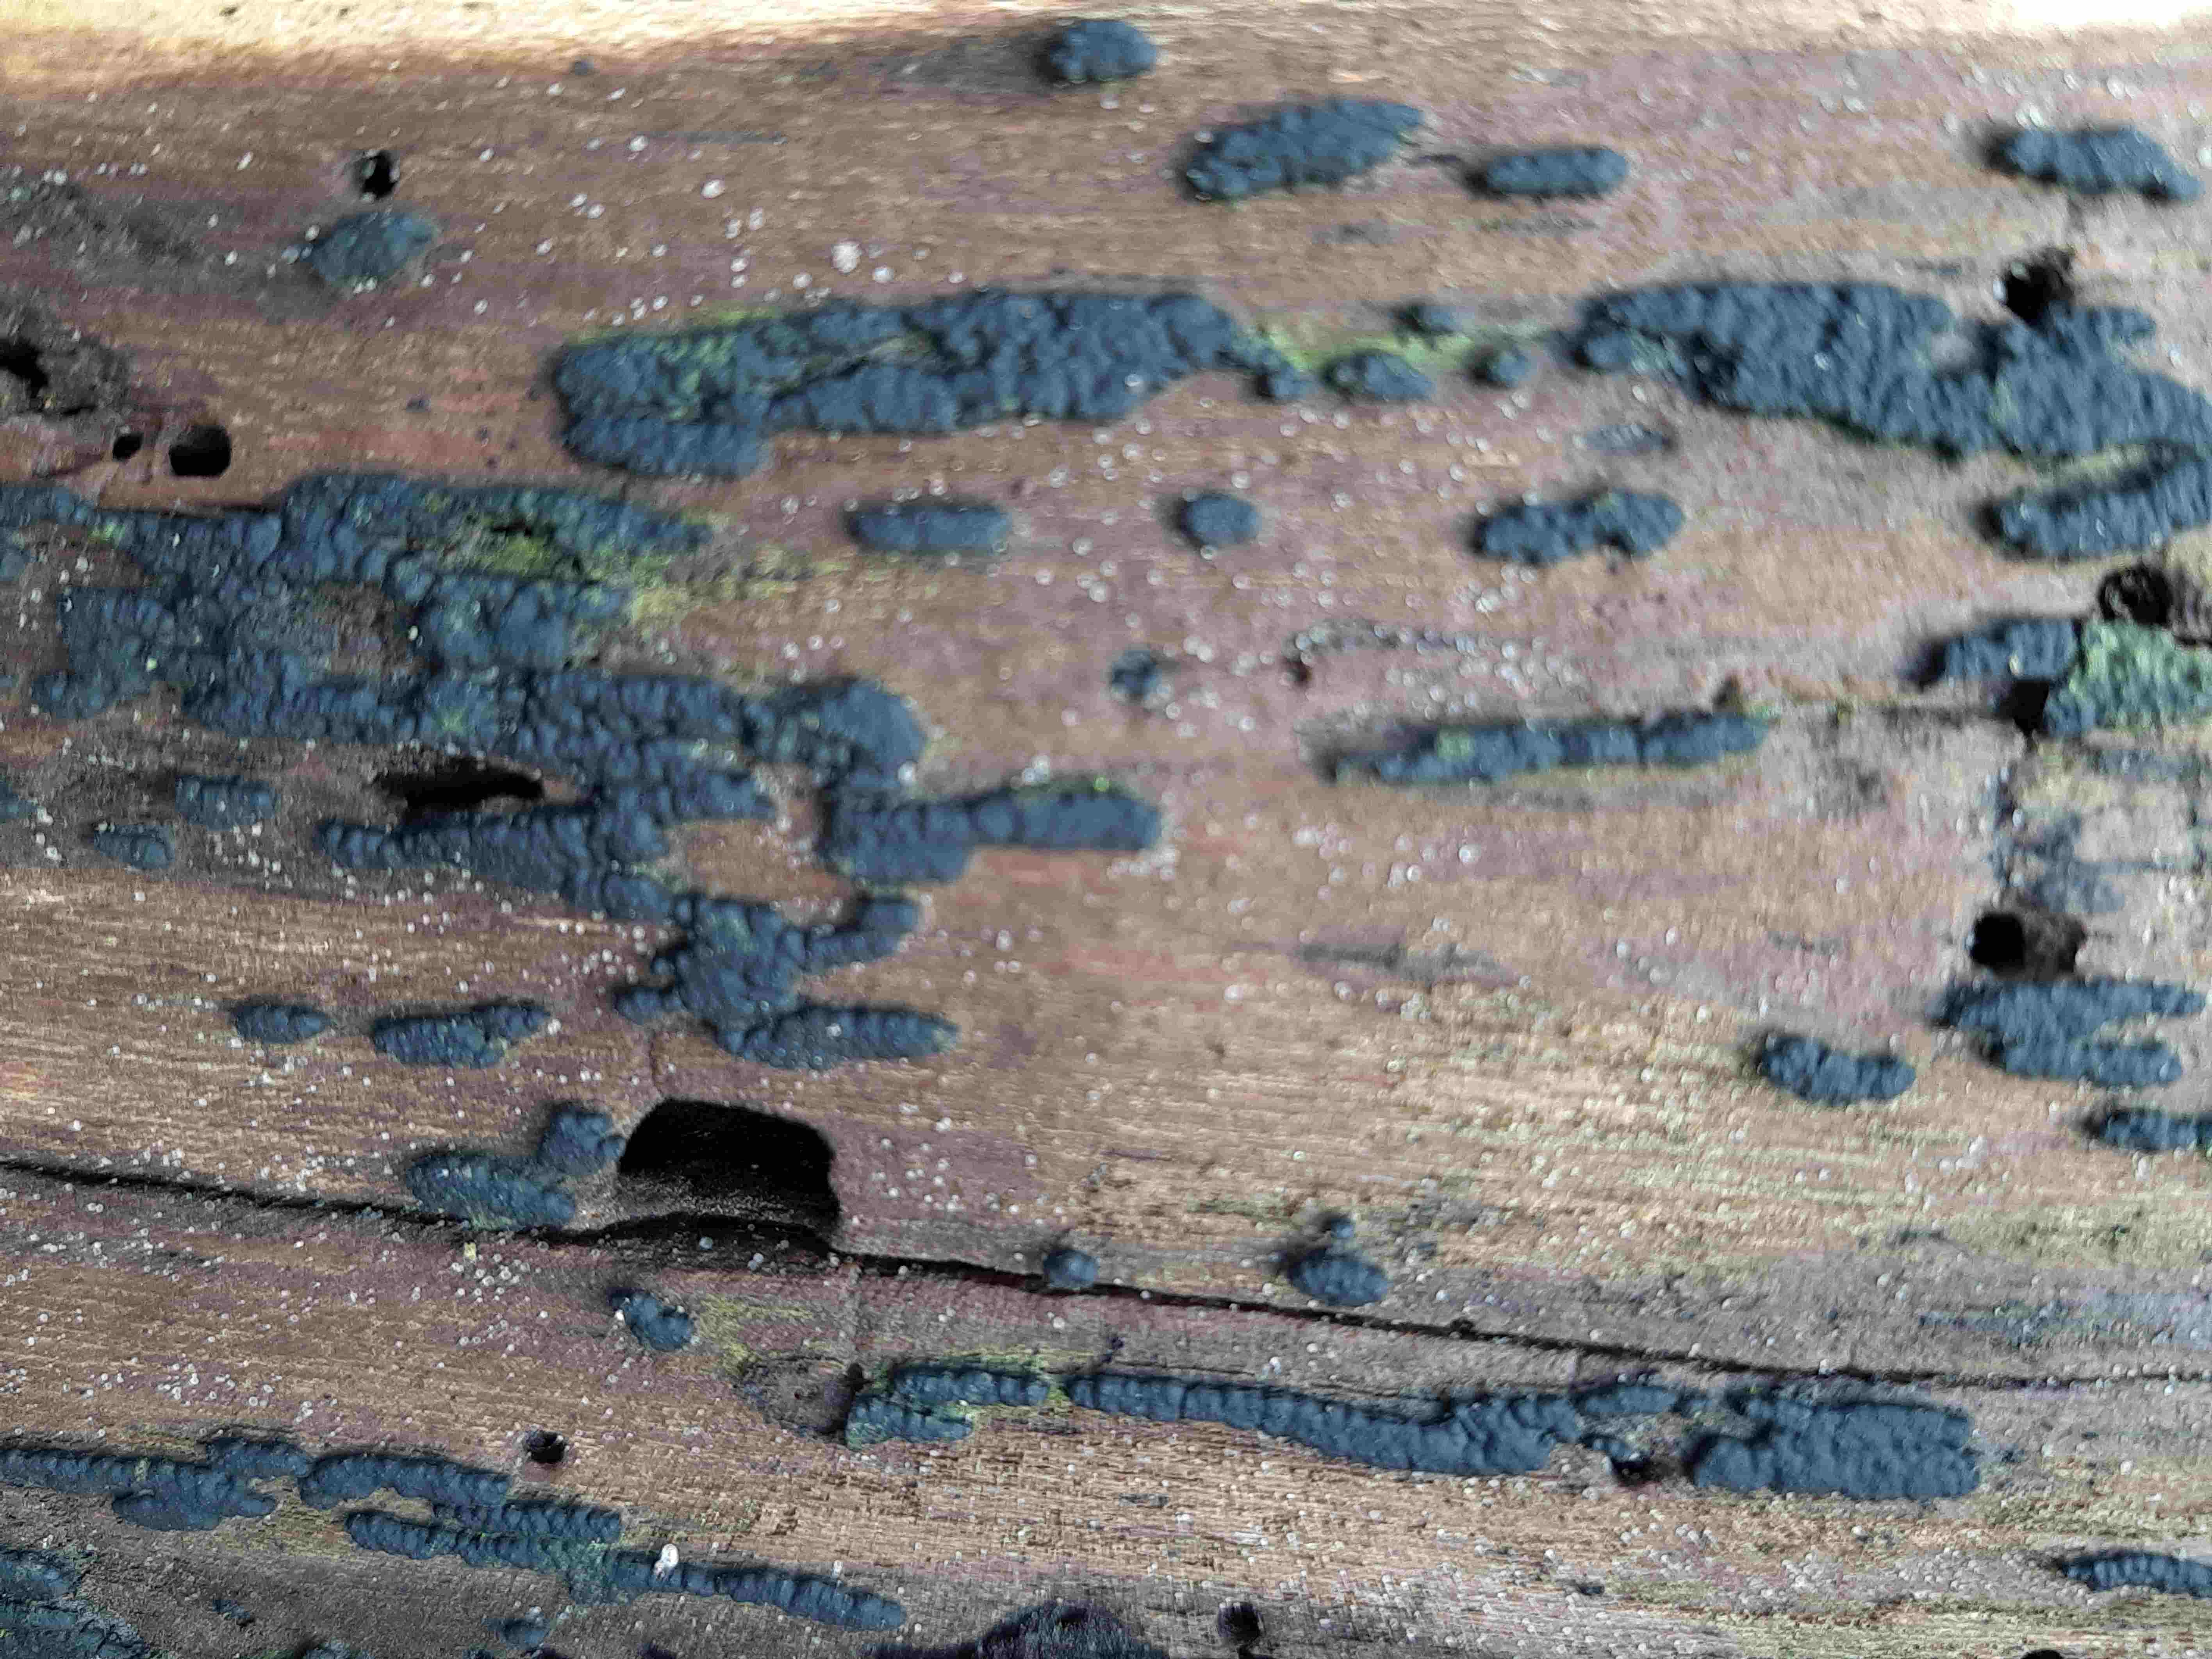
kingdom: Fungi
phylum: Ascomycota
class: Sordariomycetes
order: Xylariales
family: Xylariaceae
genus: Nemania
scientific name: Nemania
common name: kuldyne
